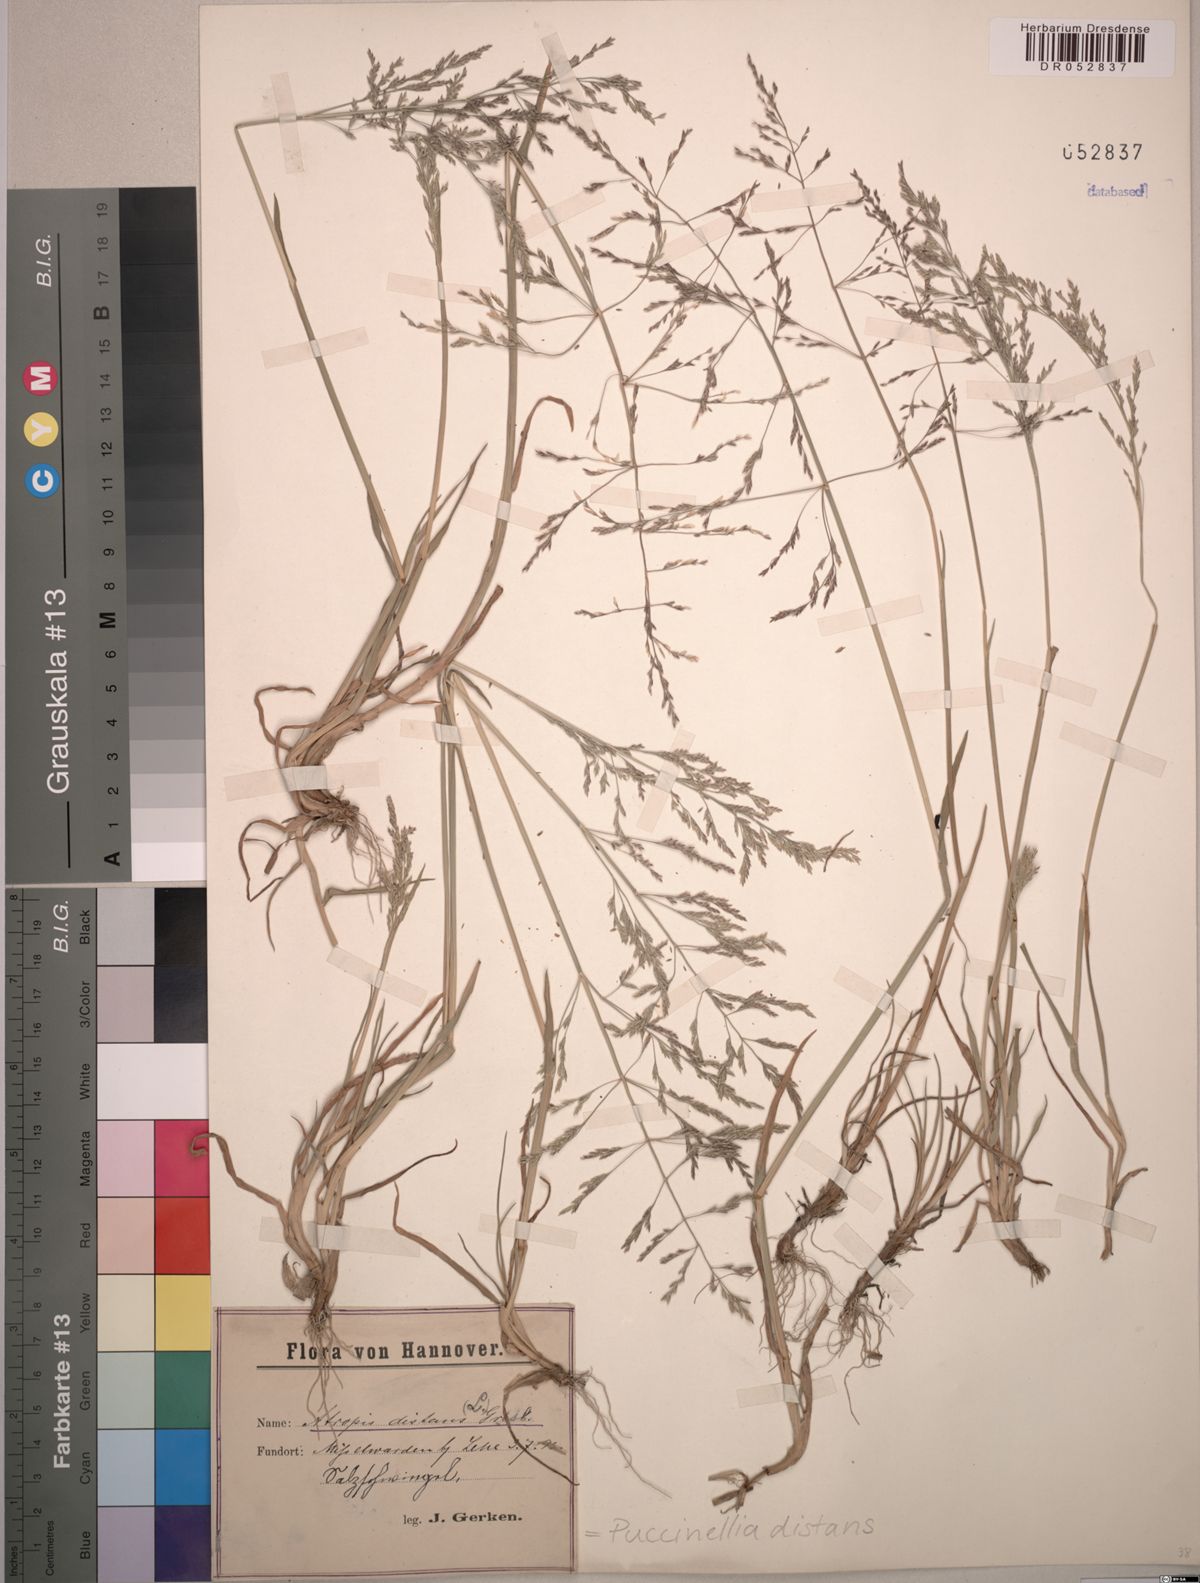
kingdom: Plantae
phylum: Tracheophyta
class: Liliopsida
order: Poales
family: Poaceae
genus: Puccinellia
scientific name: Puccinellia distans
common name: Weeping alkaligrass
